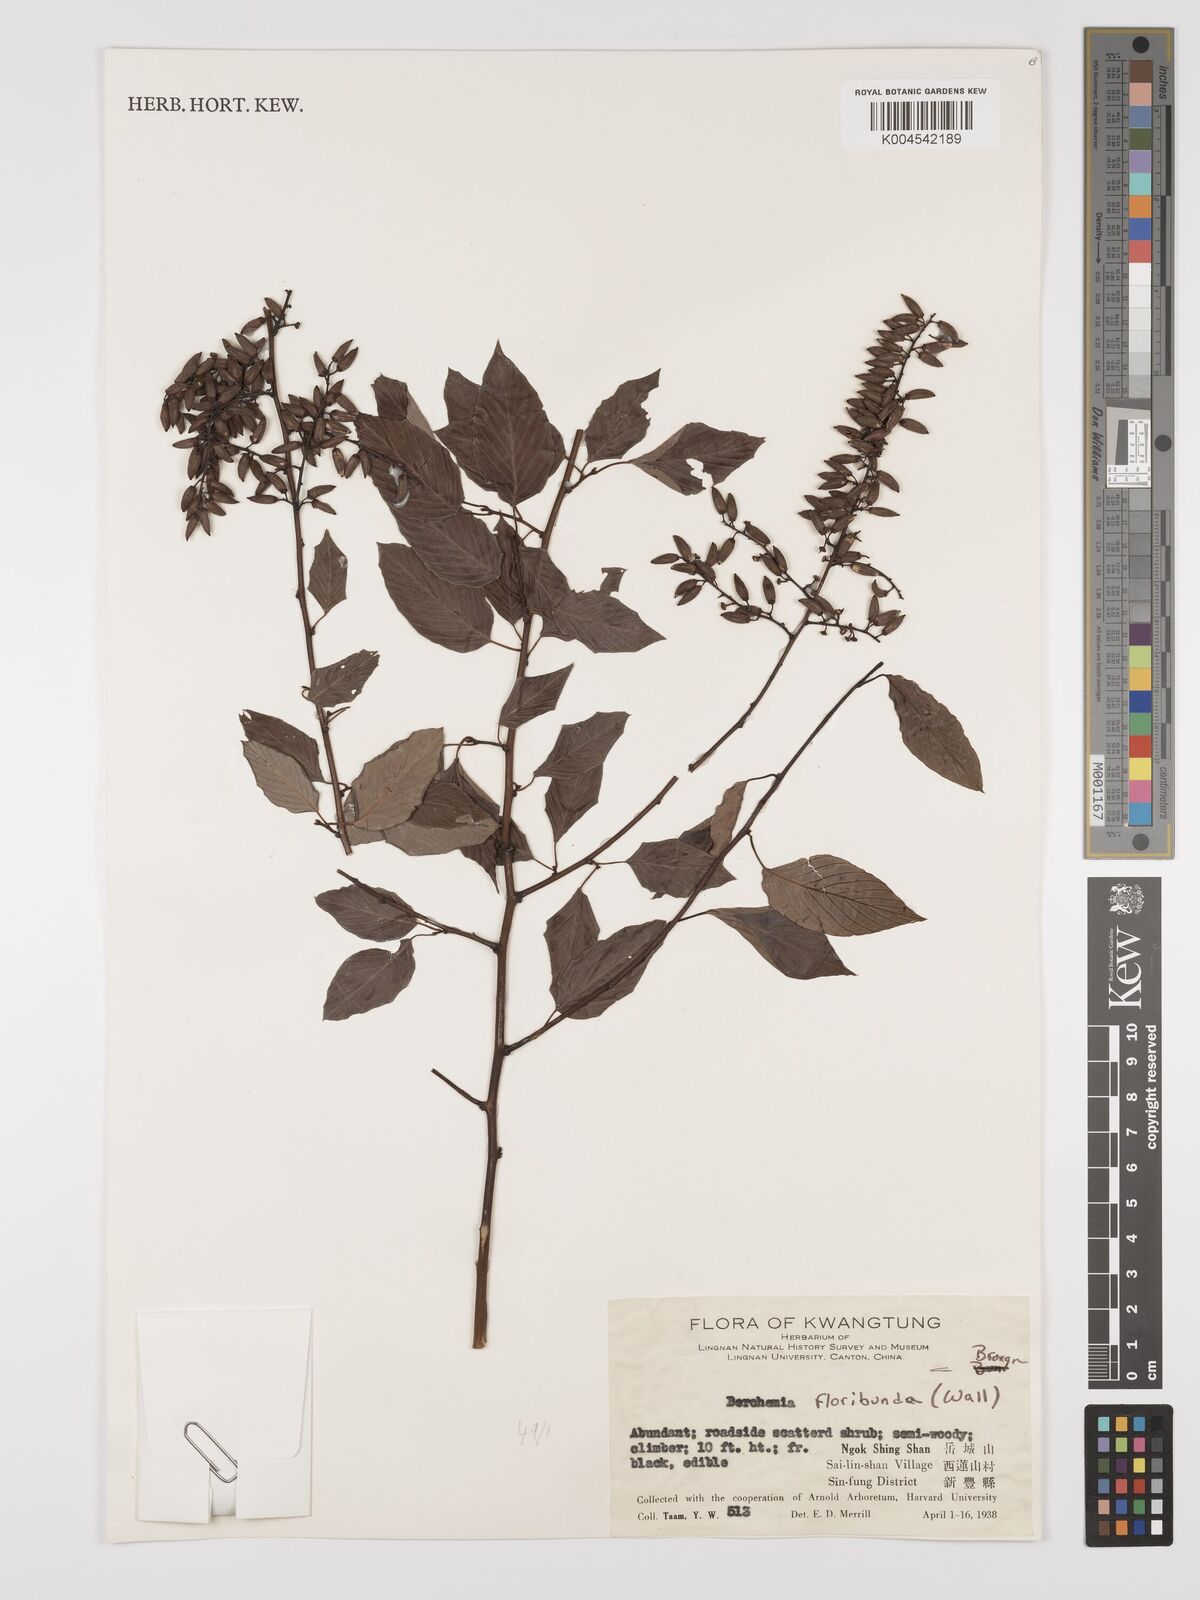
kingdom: Plantae
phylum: Tracheophyta
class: Magnoliopsida
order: Rosales
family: Rhamnaceae
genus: Berchemia
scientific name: Berchemia floribunda
